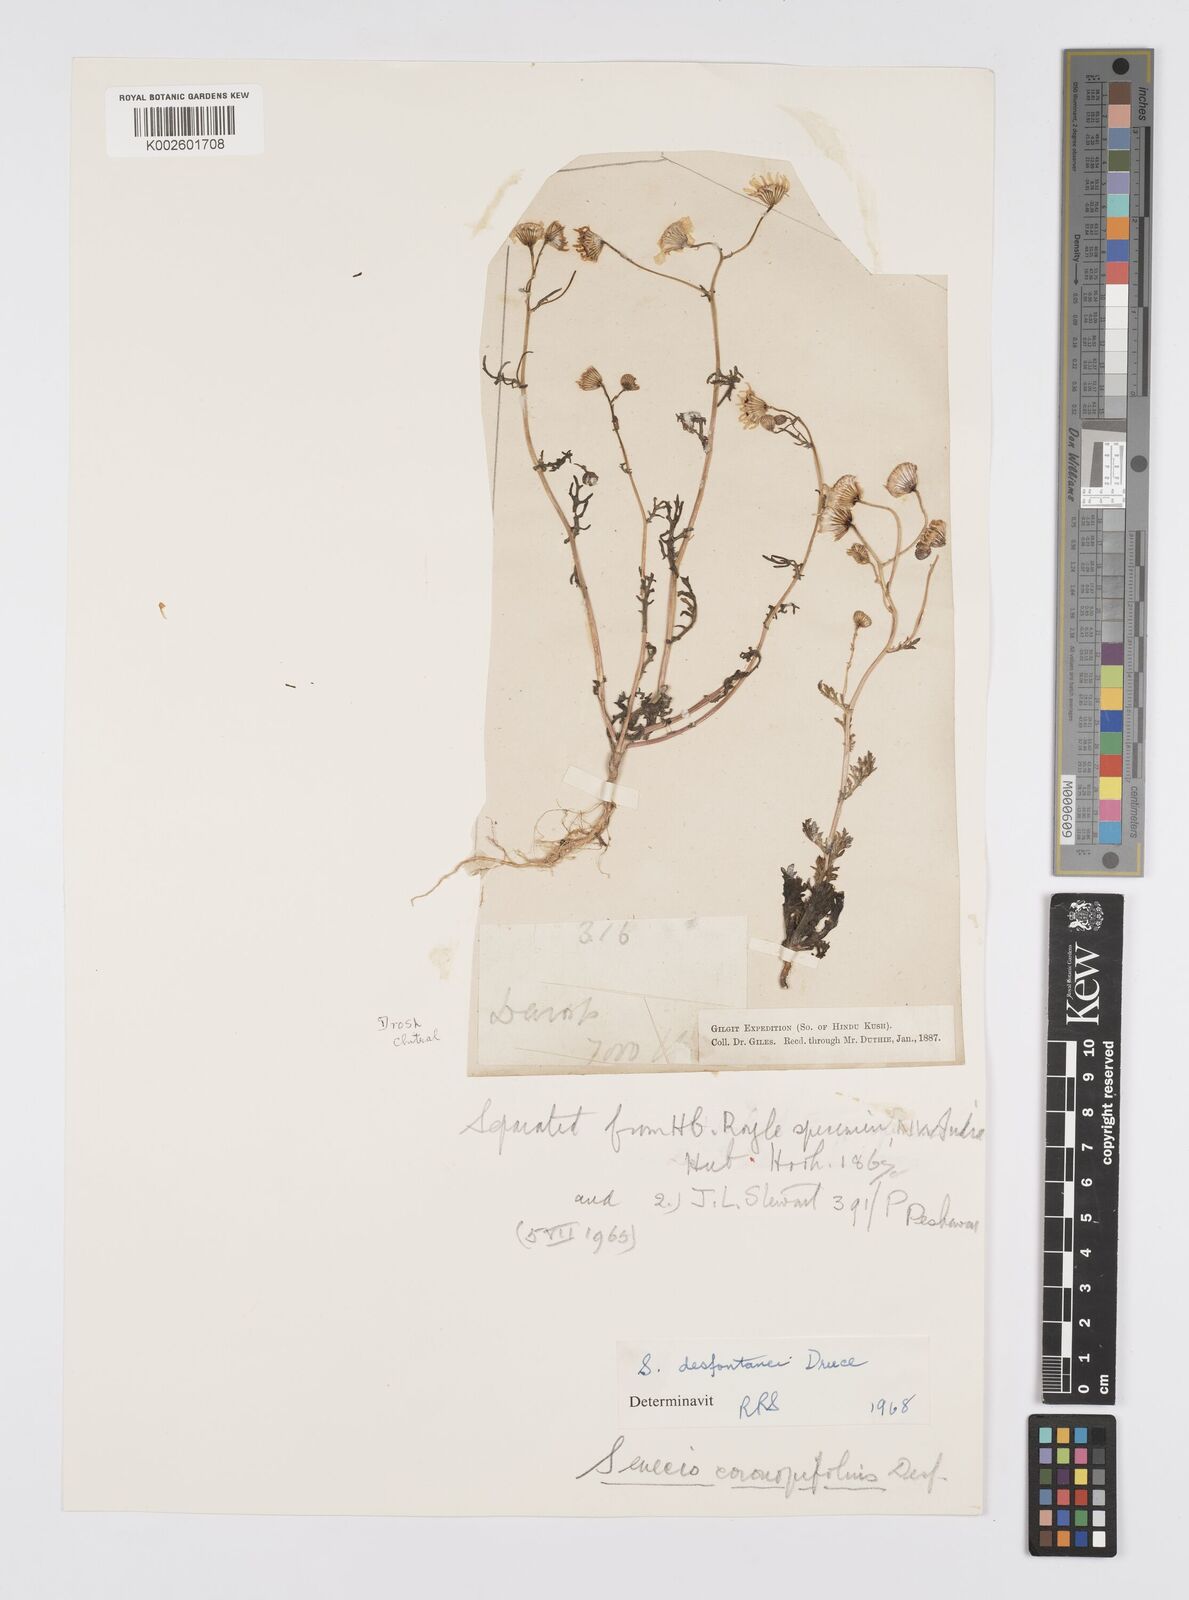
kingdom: Plantae
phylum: Tracheophyta
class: Magnoliopsida
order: Asterales
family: Asteraceae
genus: Senecio
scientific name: Senecio glaucus
